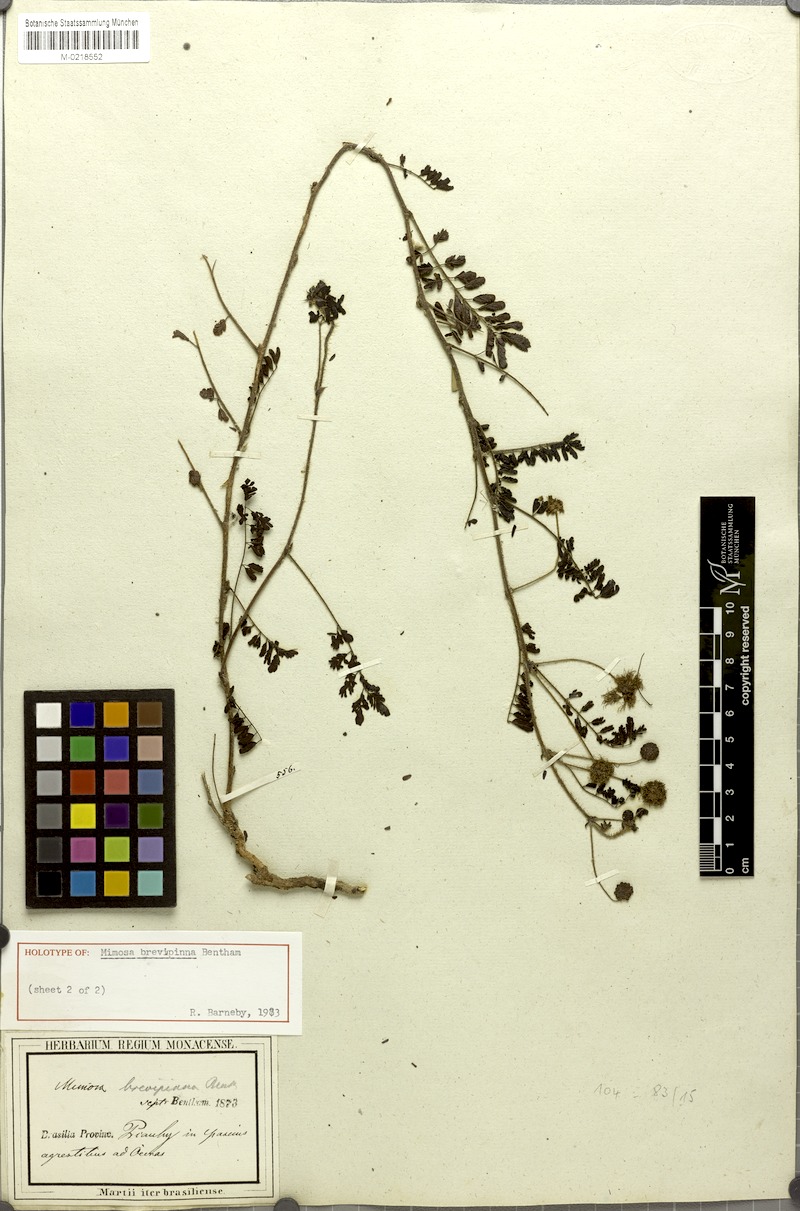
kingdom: Plantae
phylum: Tracheophyta
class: Magnoliopsida
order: Fabales
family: Fabaceae
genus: Mimosa
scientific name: Mimosa brevipinna
